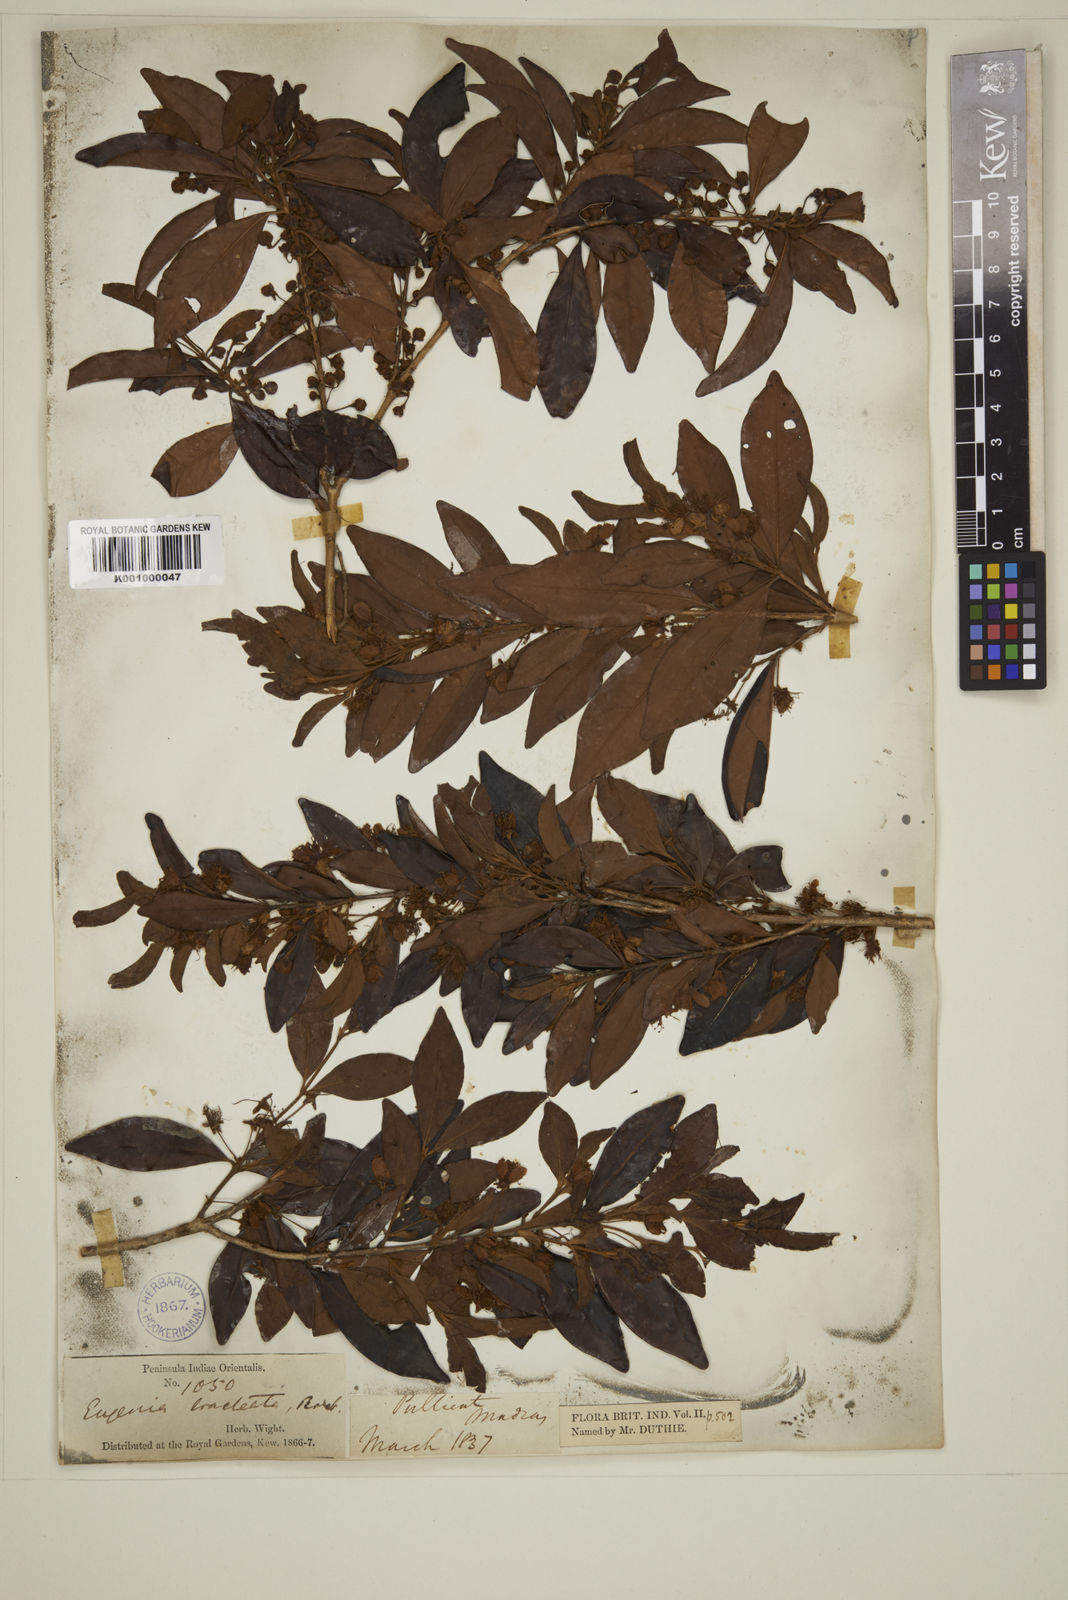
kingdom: Plantae
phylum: Tracheophyta
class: Magnoliopsida
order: Myrtales
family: Myrtaceae
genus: Myrcia
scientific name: Myrcia bracteata
